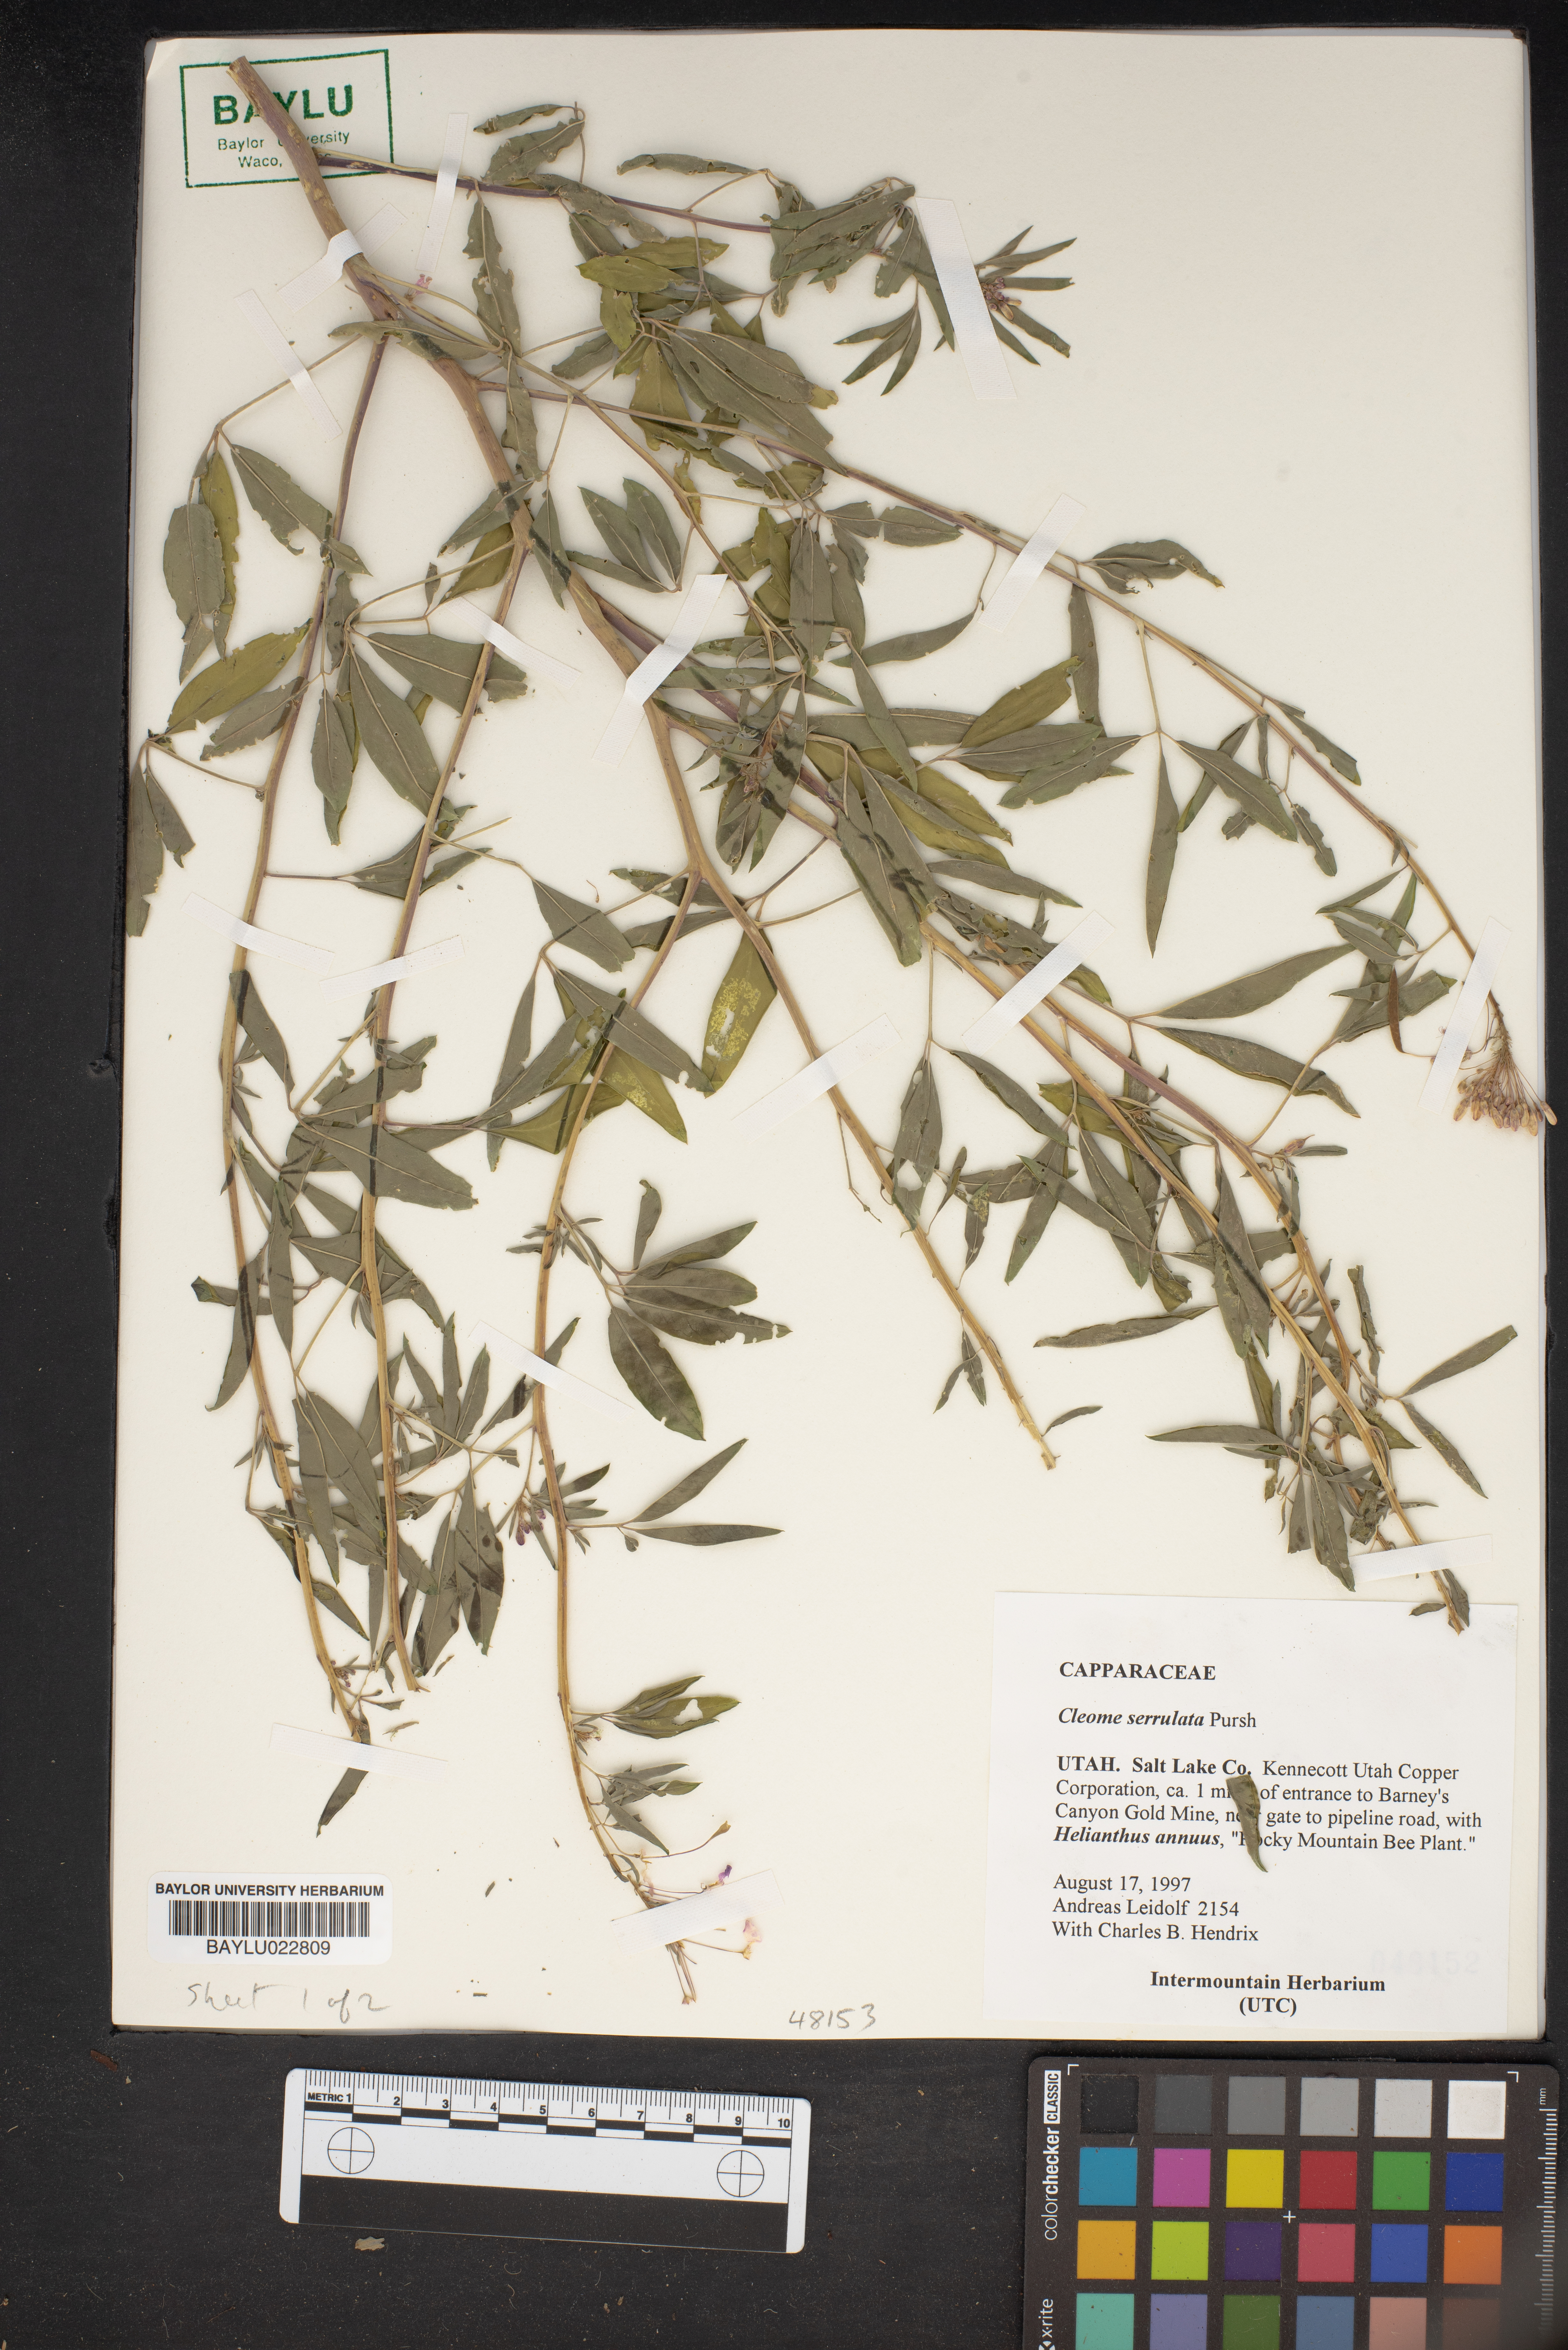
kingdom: Plantae
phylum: Tracheophyta
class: Magnoliopsida
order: Brassicales
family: Cleomaceae
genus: Cleomella
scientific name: Cleomella serrulata
